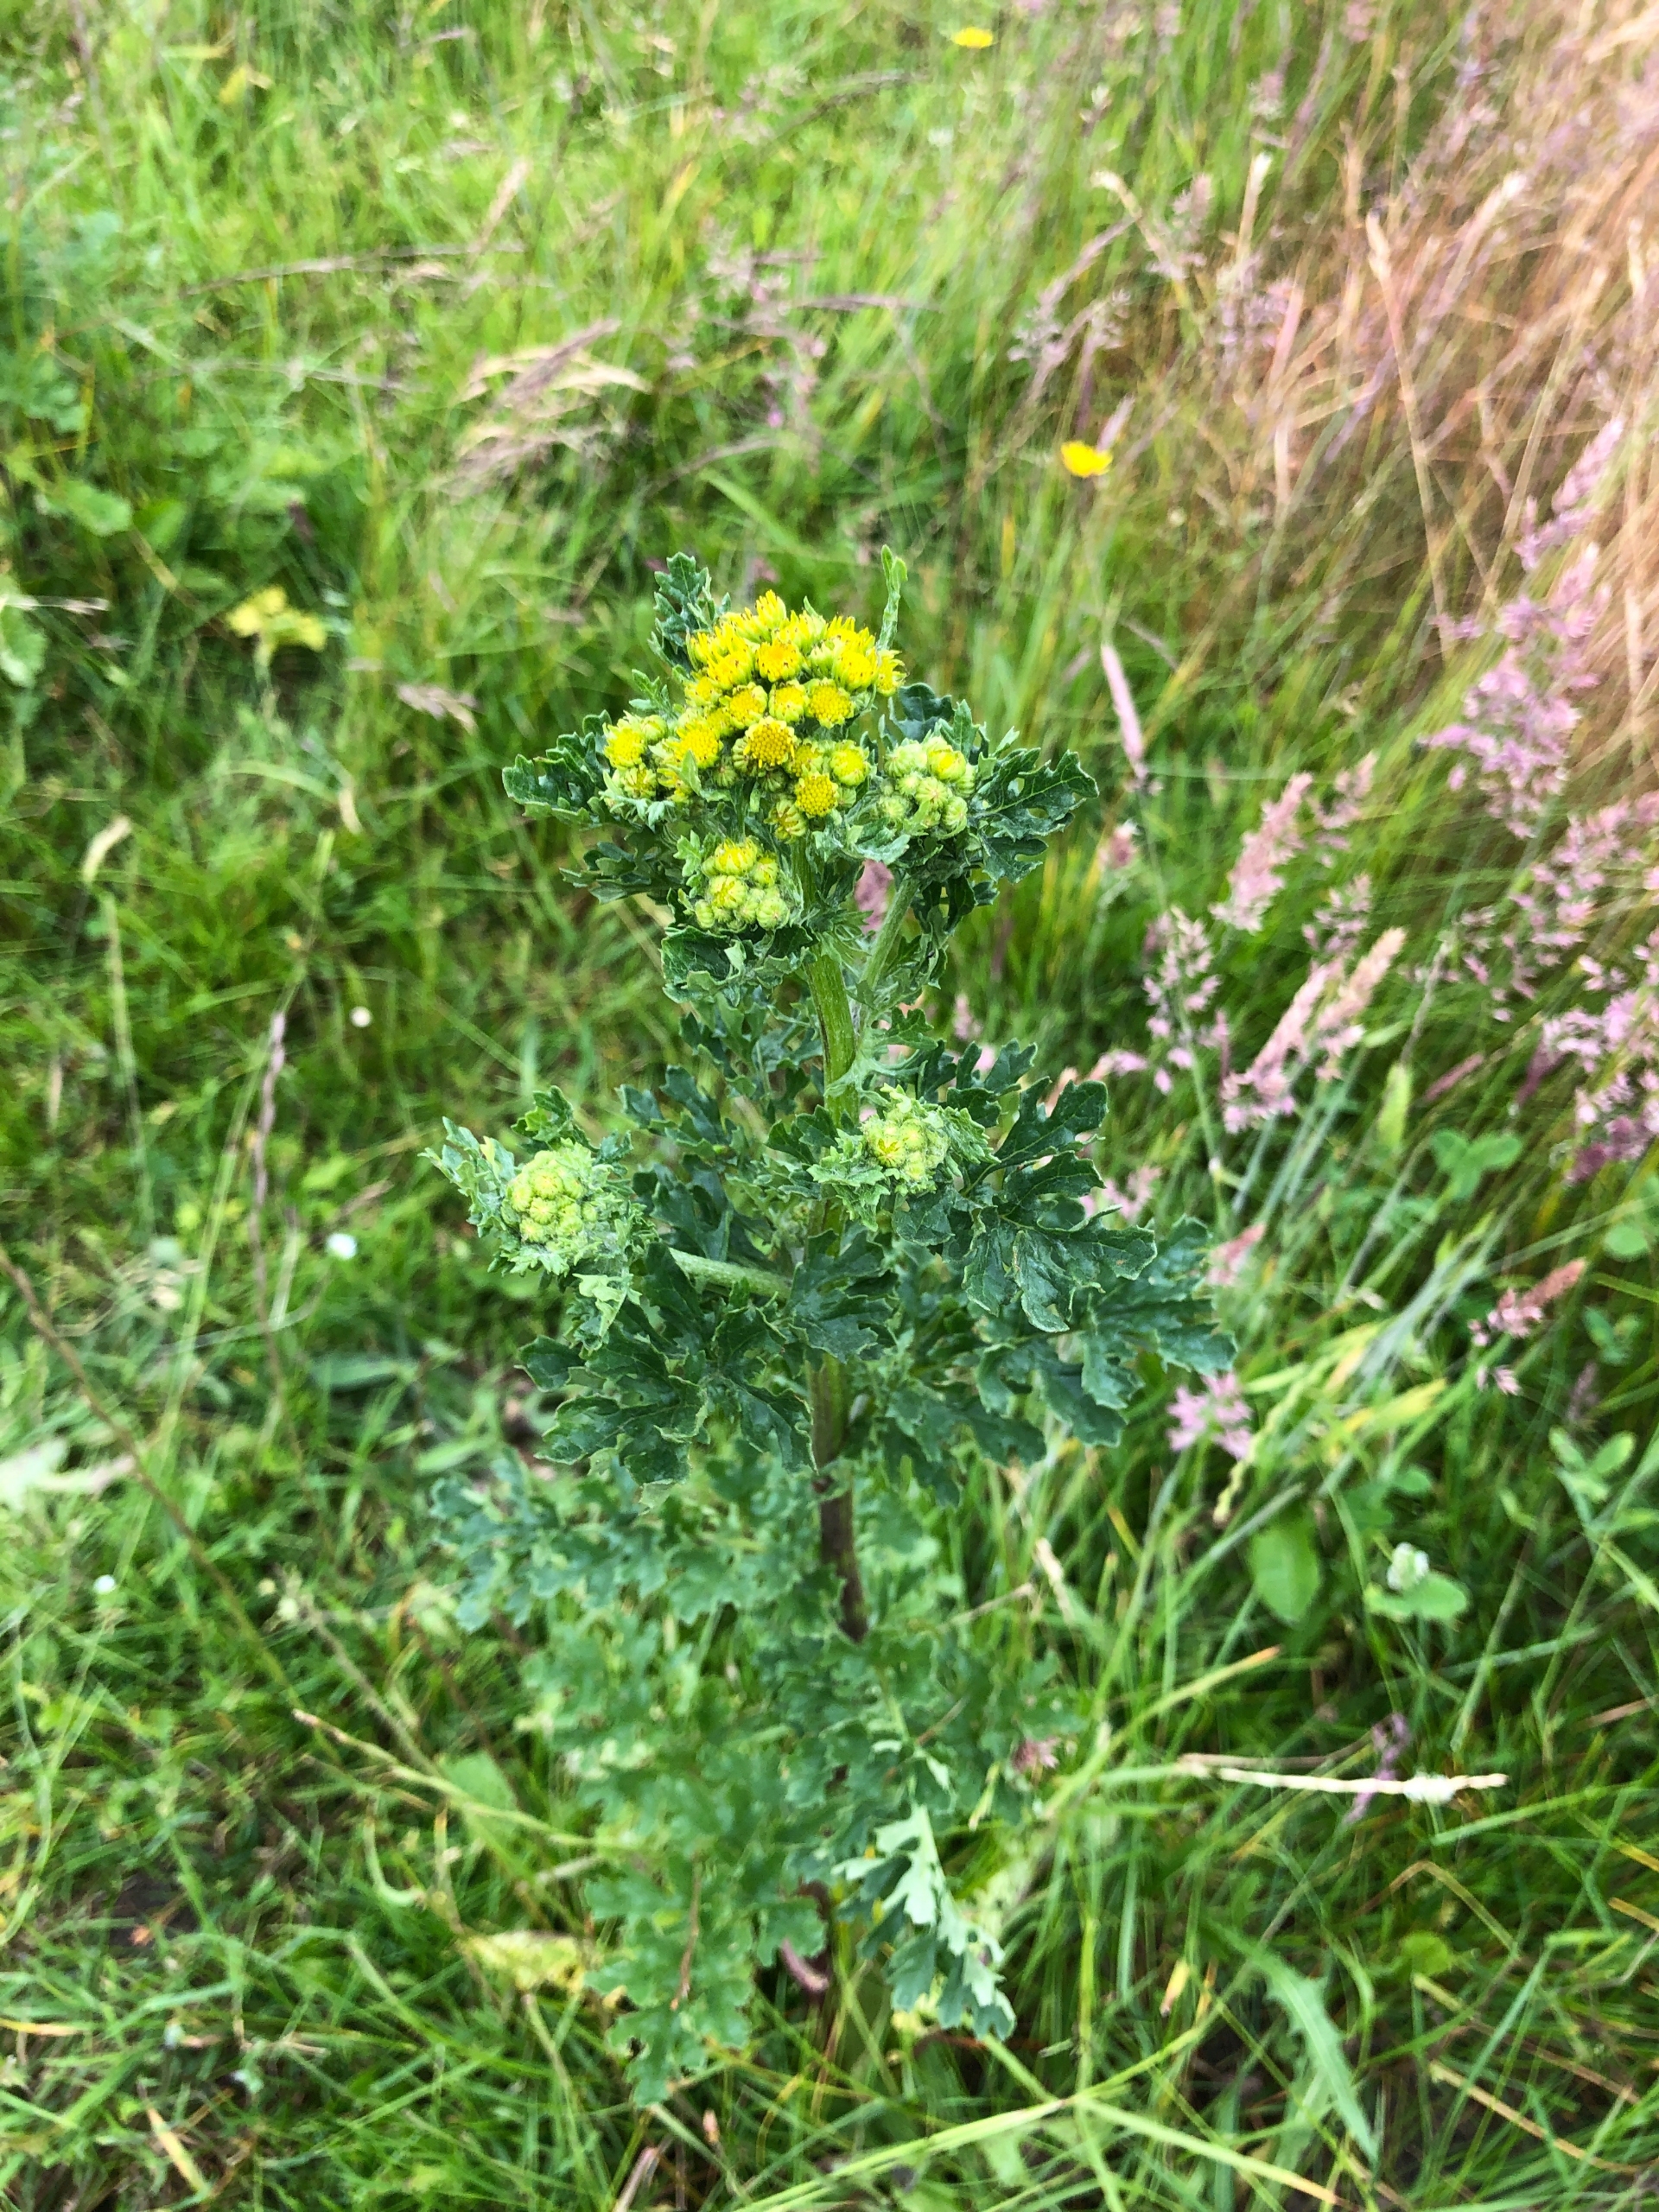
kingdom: Plantae
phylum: Tracheophyta
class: Magnoliopsida
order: Asterales
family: Asteraceae
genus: Jacobaea
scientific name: Jacobaea vulgaris
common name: Eng-brandbæger
